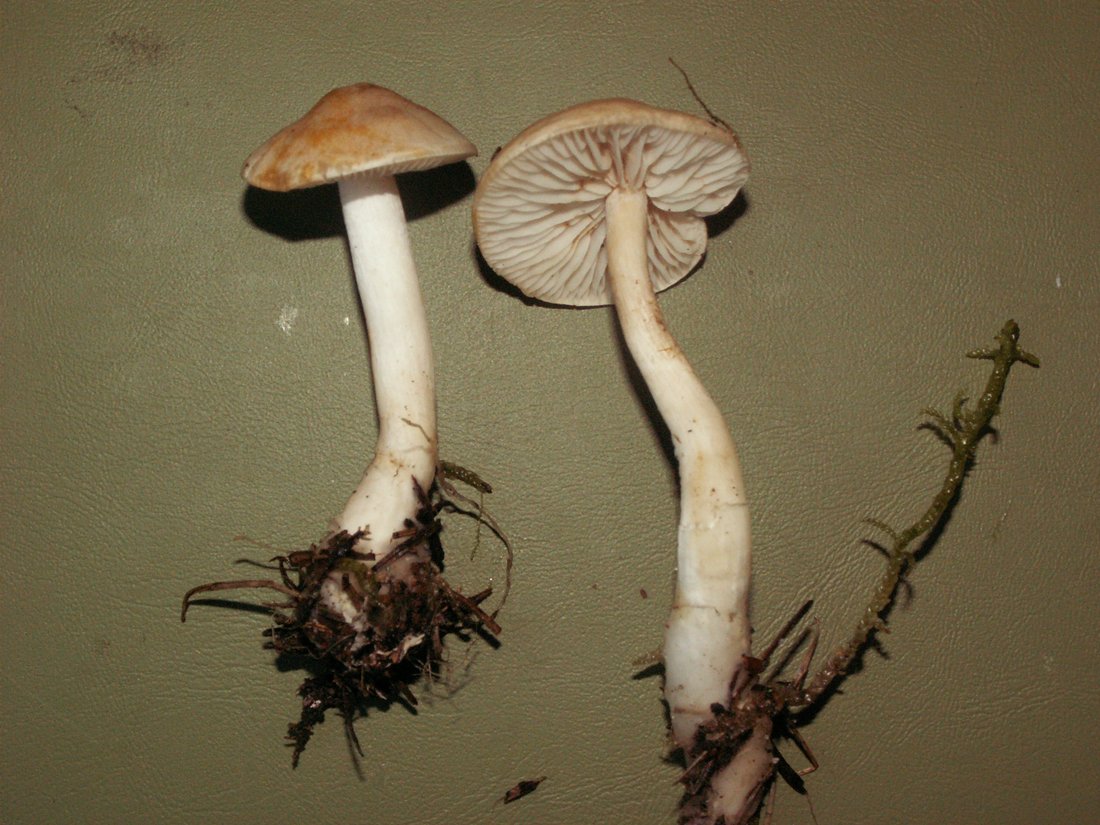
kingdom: Fungi
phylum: Basidiomycota
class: Agaricomycetes
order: Agaricales
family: Tricholomataceae
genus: Tricholoma
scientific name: Tricholoma inamoenum
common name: højstokket ridderhat
